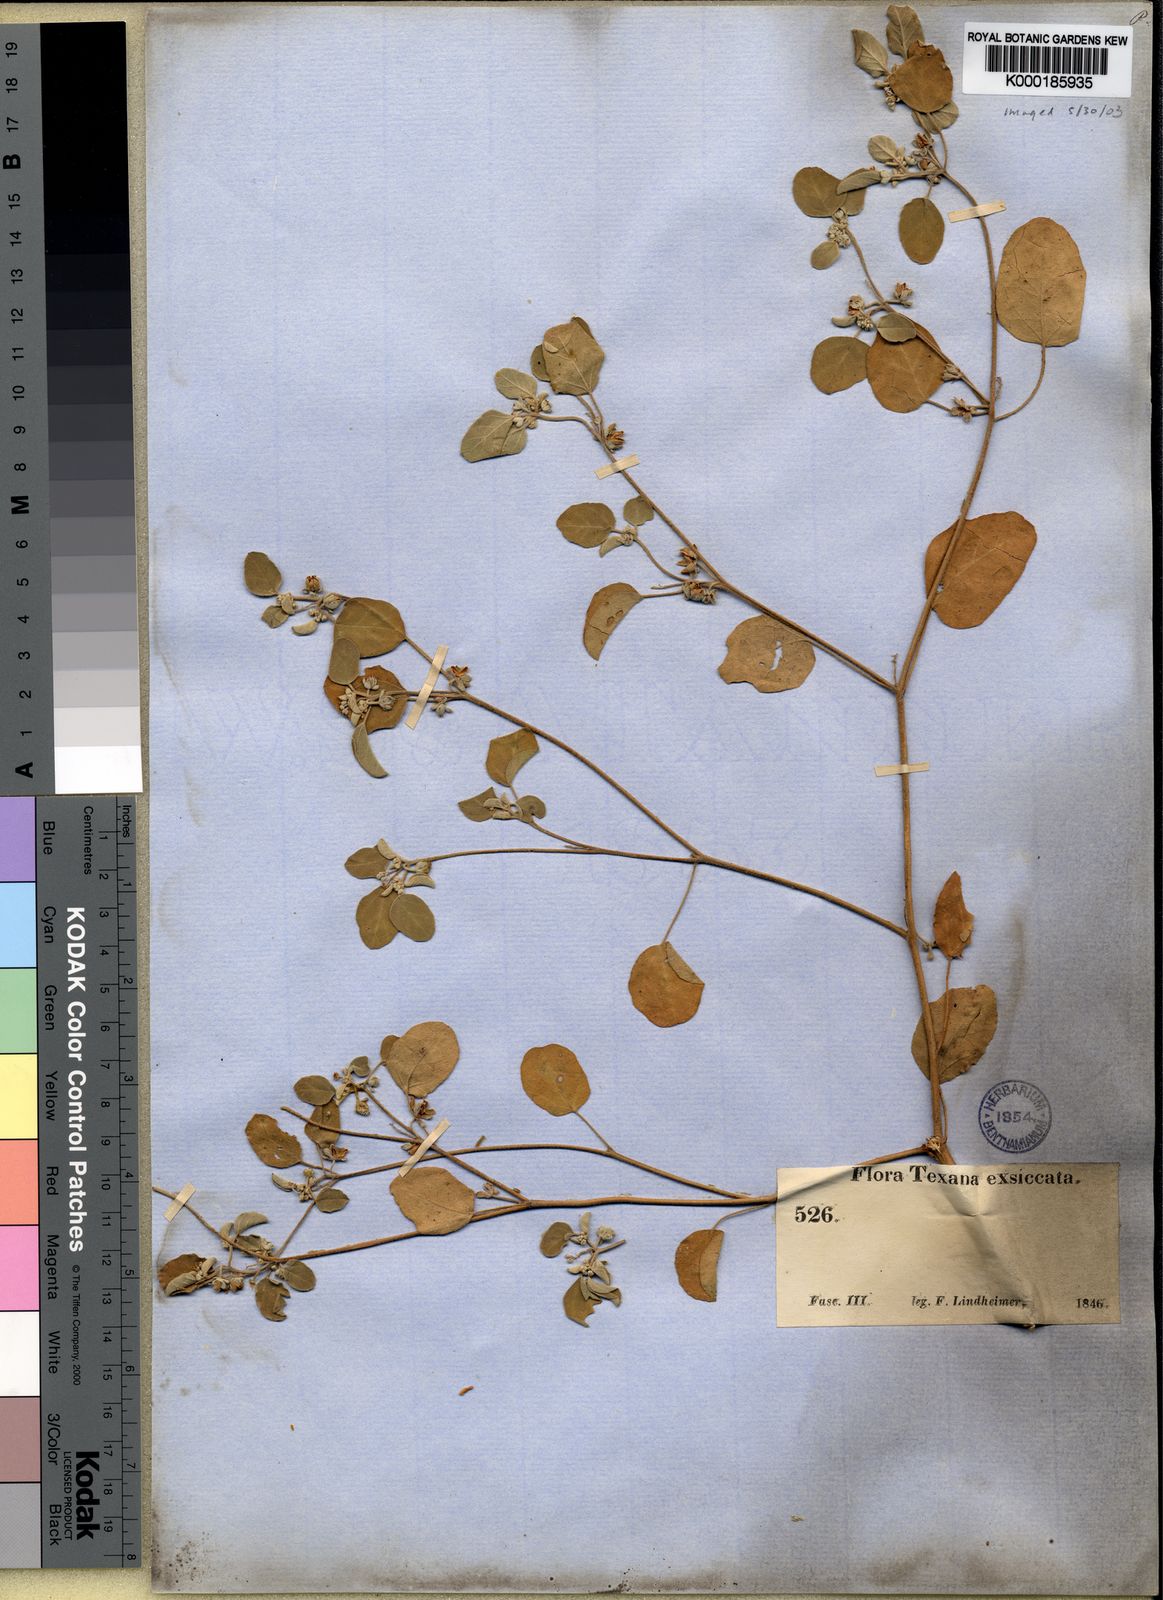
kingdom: Plantae
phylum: Tracheophyta
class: Magnoliopsida
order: Malpighiales
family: Euphorbiaceae
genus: Croton
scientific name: Croton ellipticus
